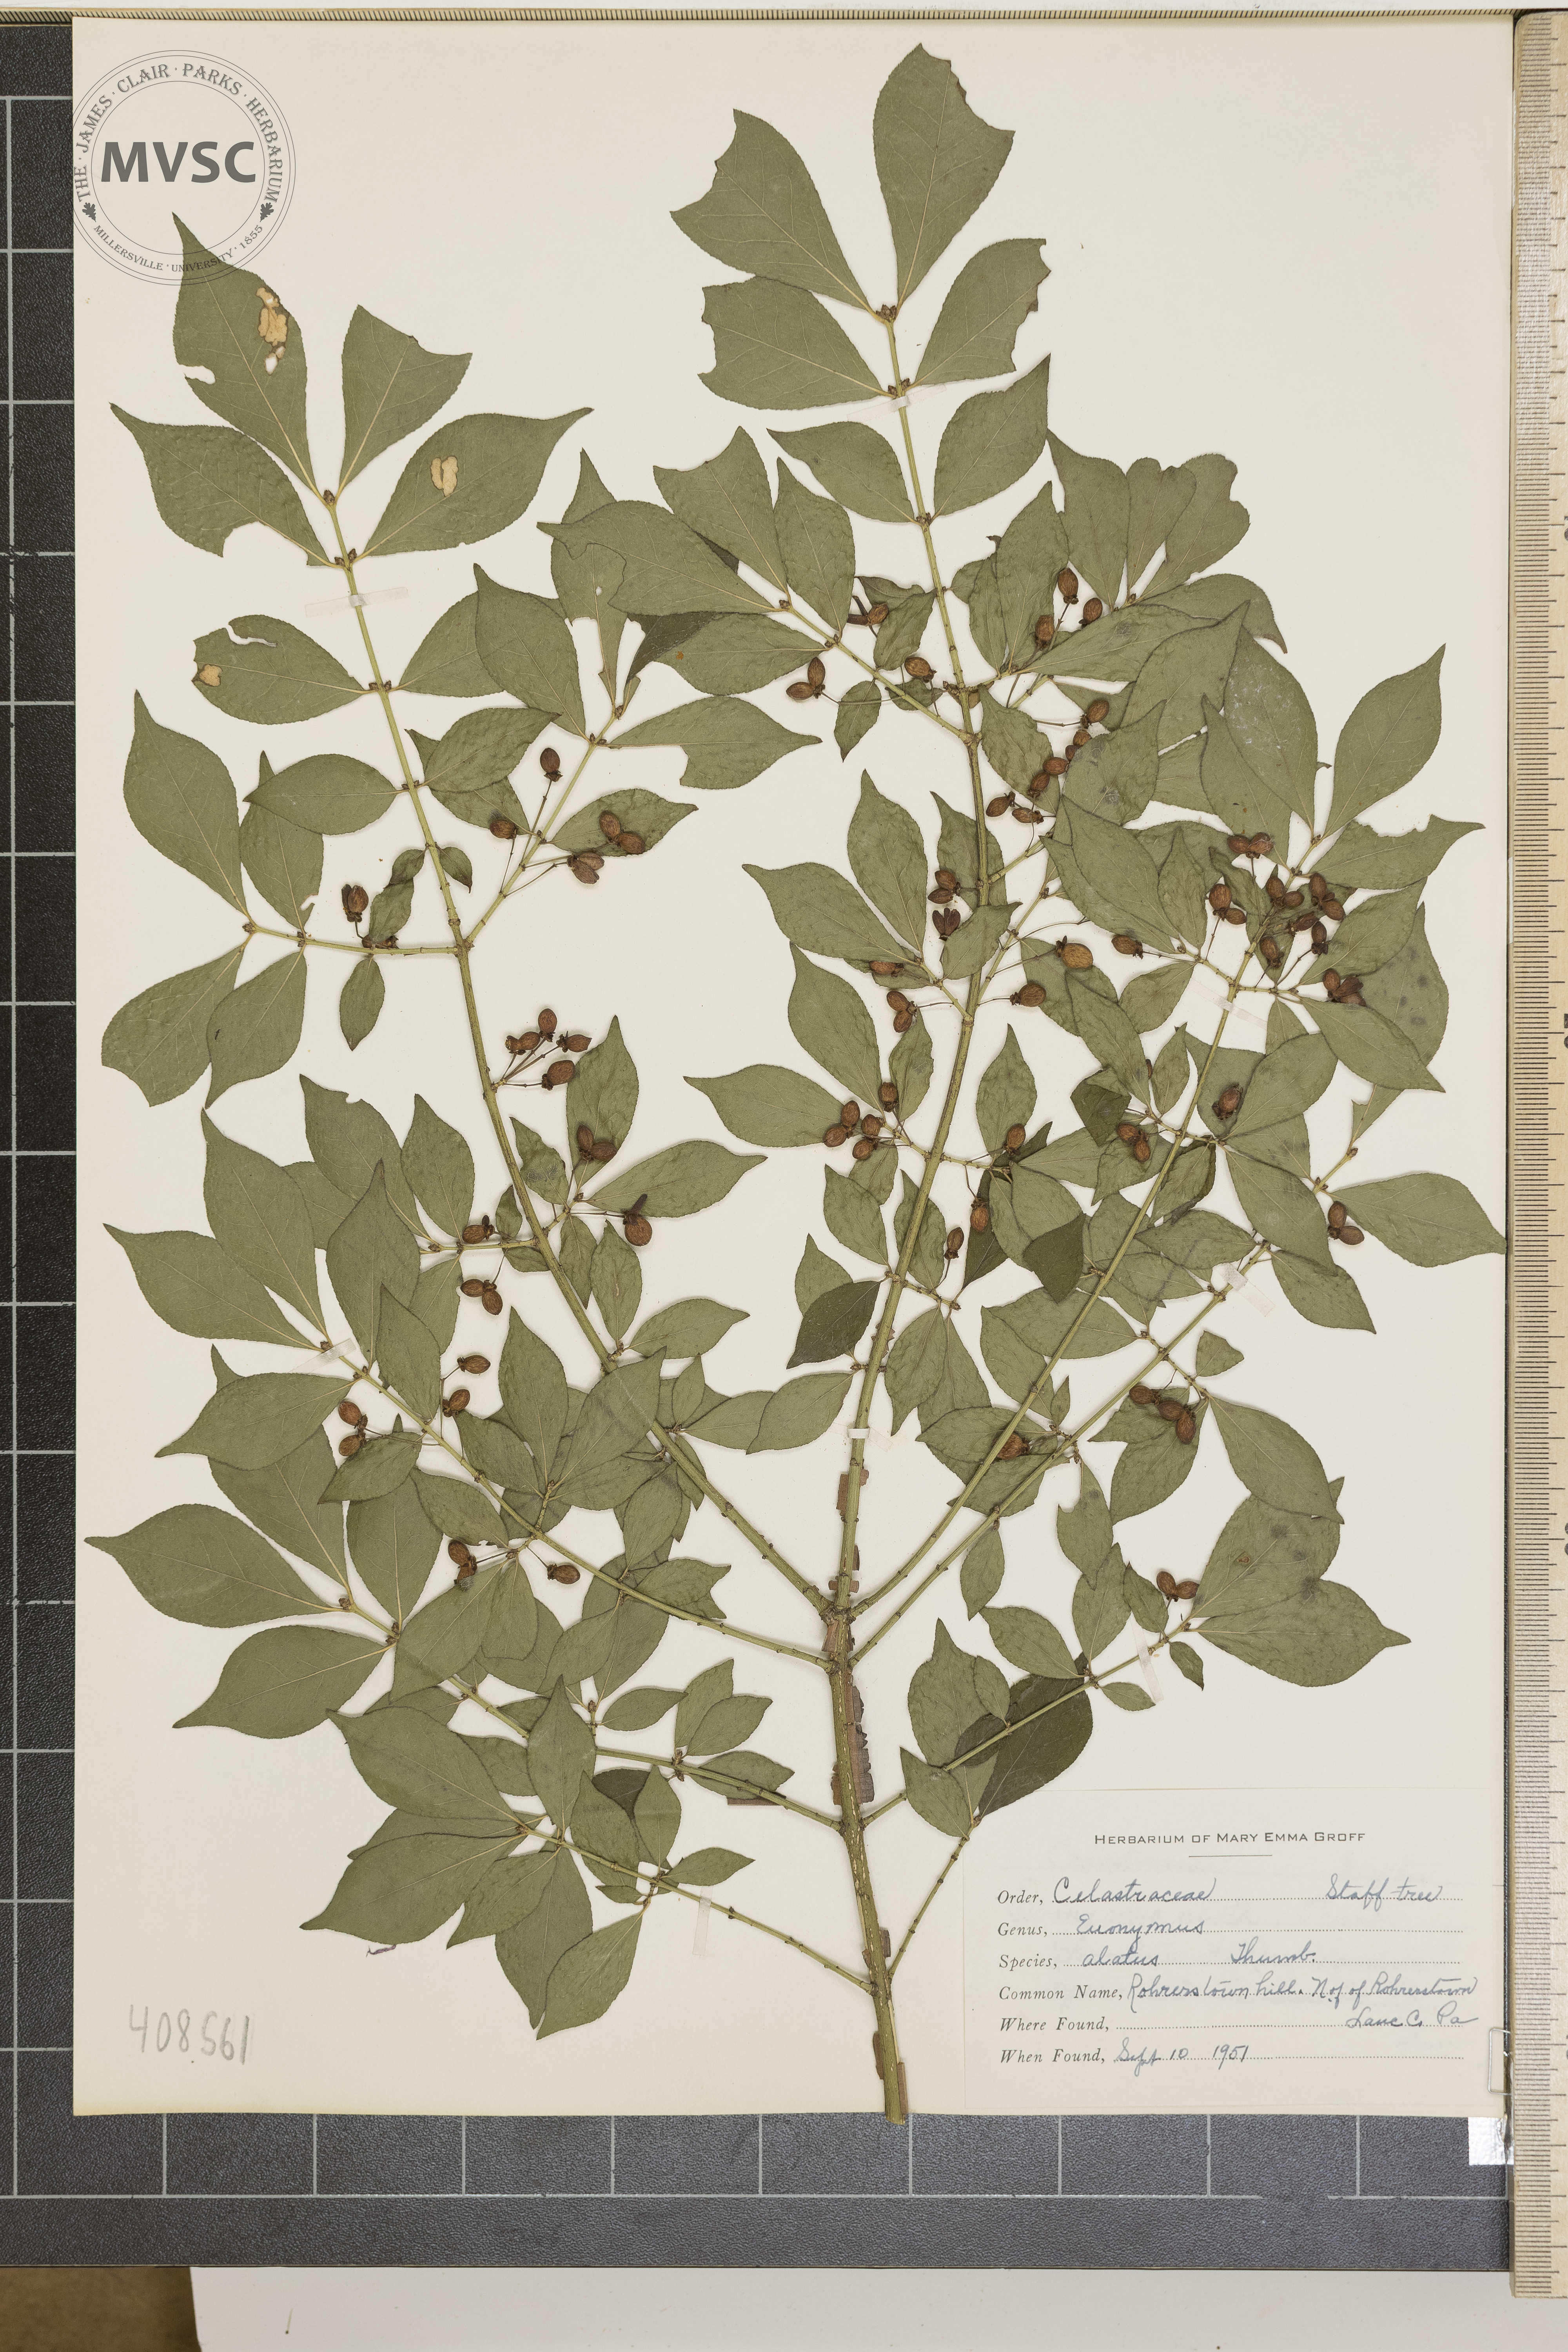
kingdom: Plantae
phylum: Tracheophyta
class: Magnoliopsida
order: Celastrales
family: Celastraceae
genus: Euonymus
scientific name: Euonymus alatus
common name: Winged euonymus
